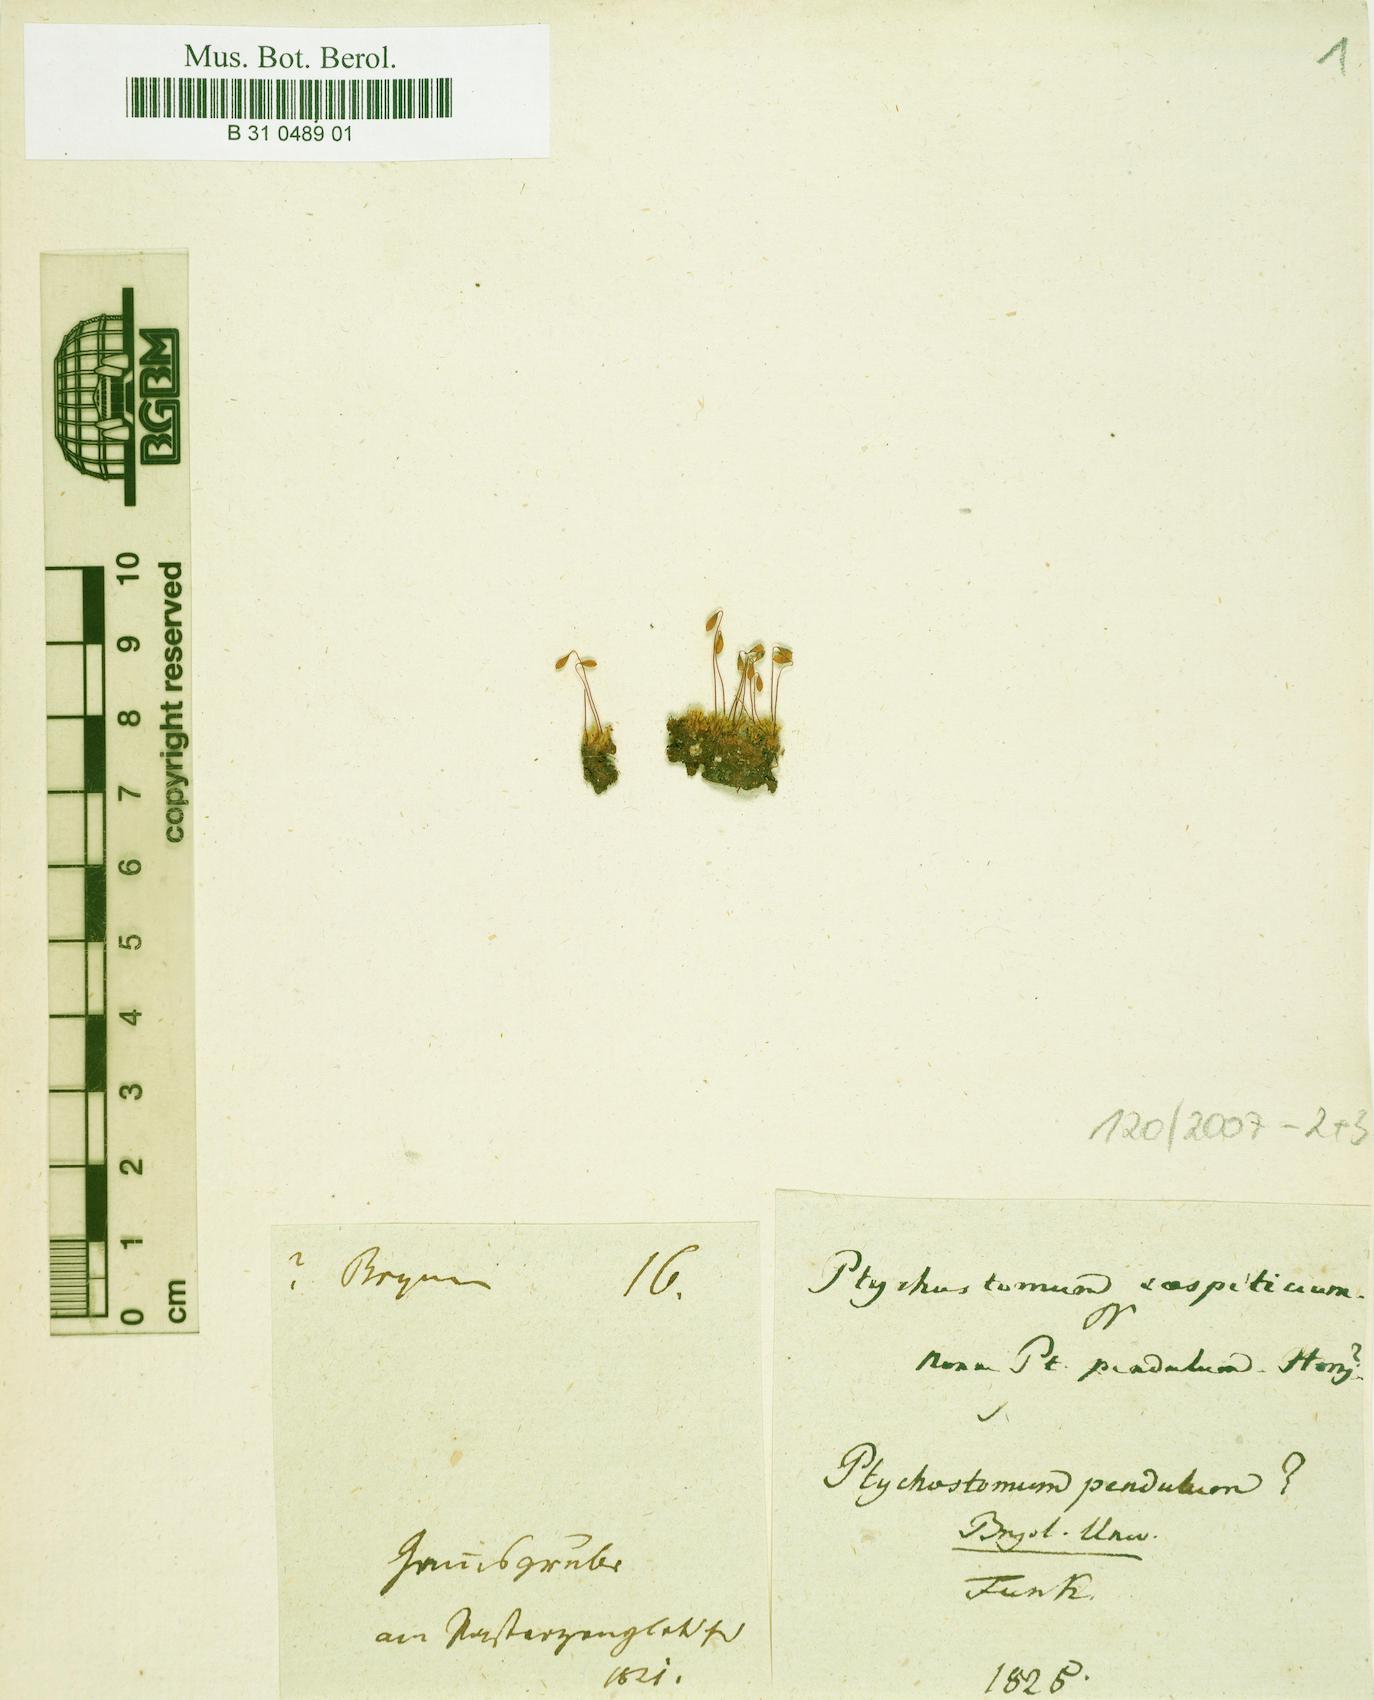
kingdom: Plantae
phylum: Bryophyta
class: Bryopsida
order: Bryales
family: Bryaceae
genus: Ptychostomum
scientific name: Ptychostomum compactum
